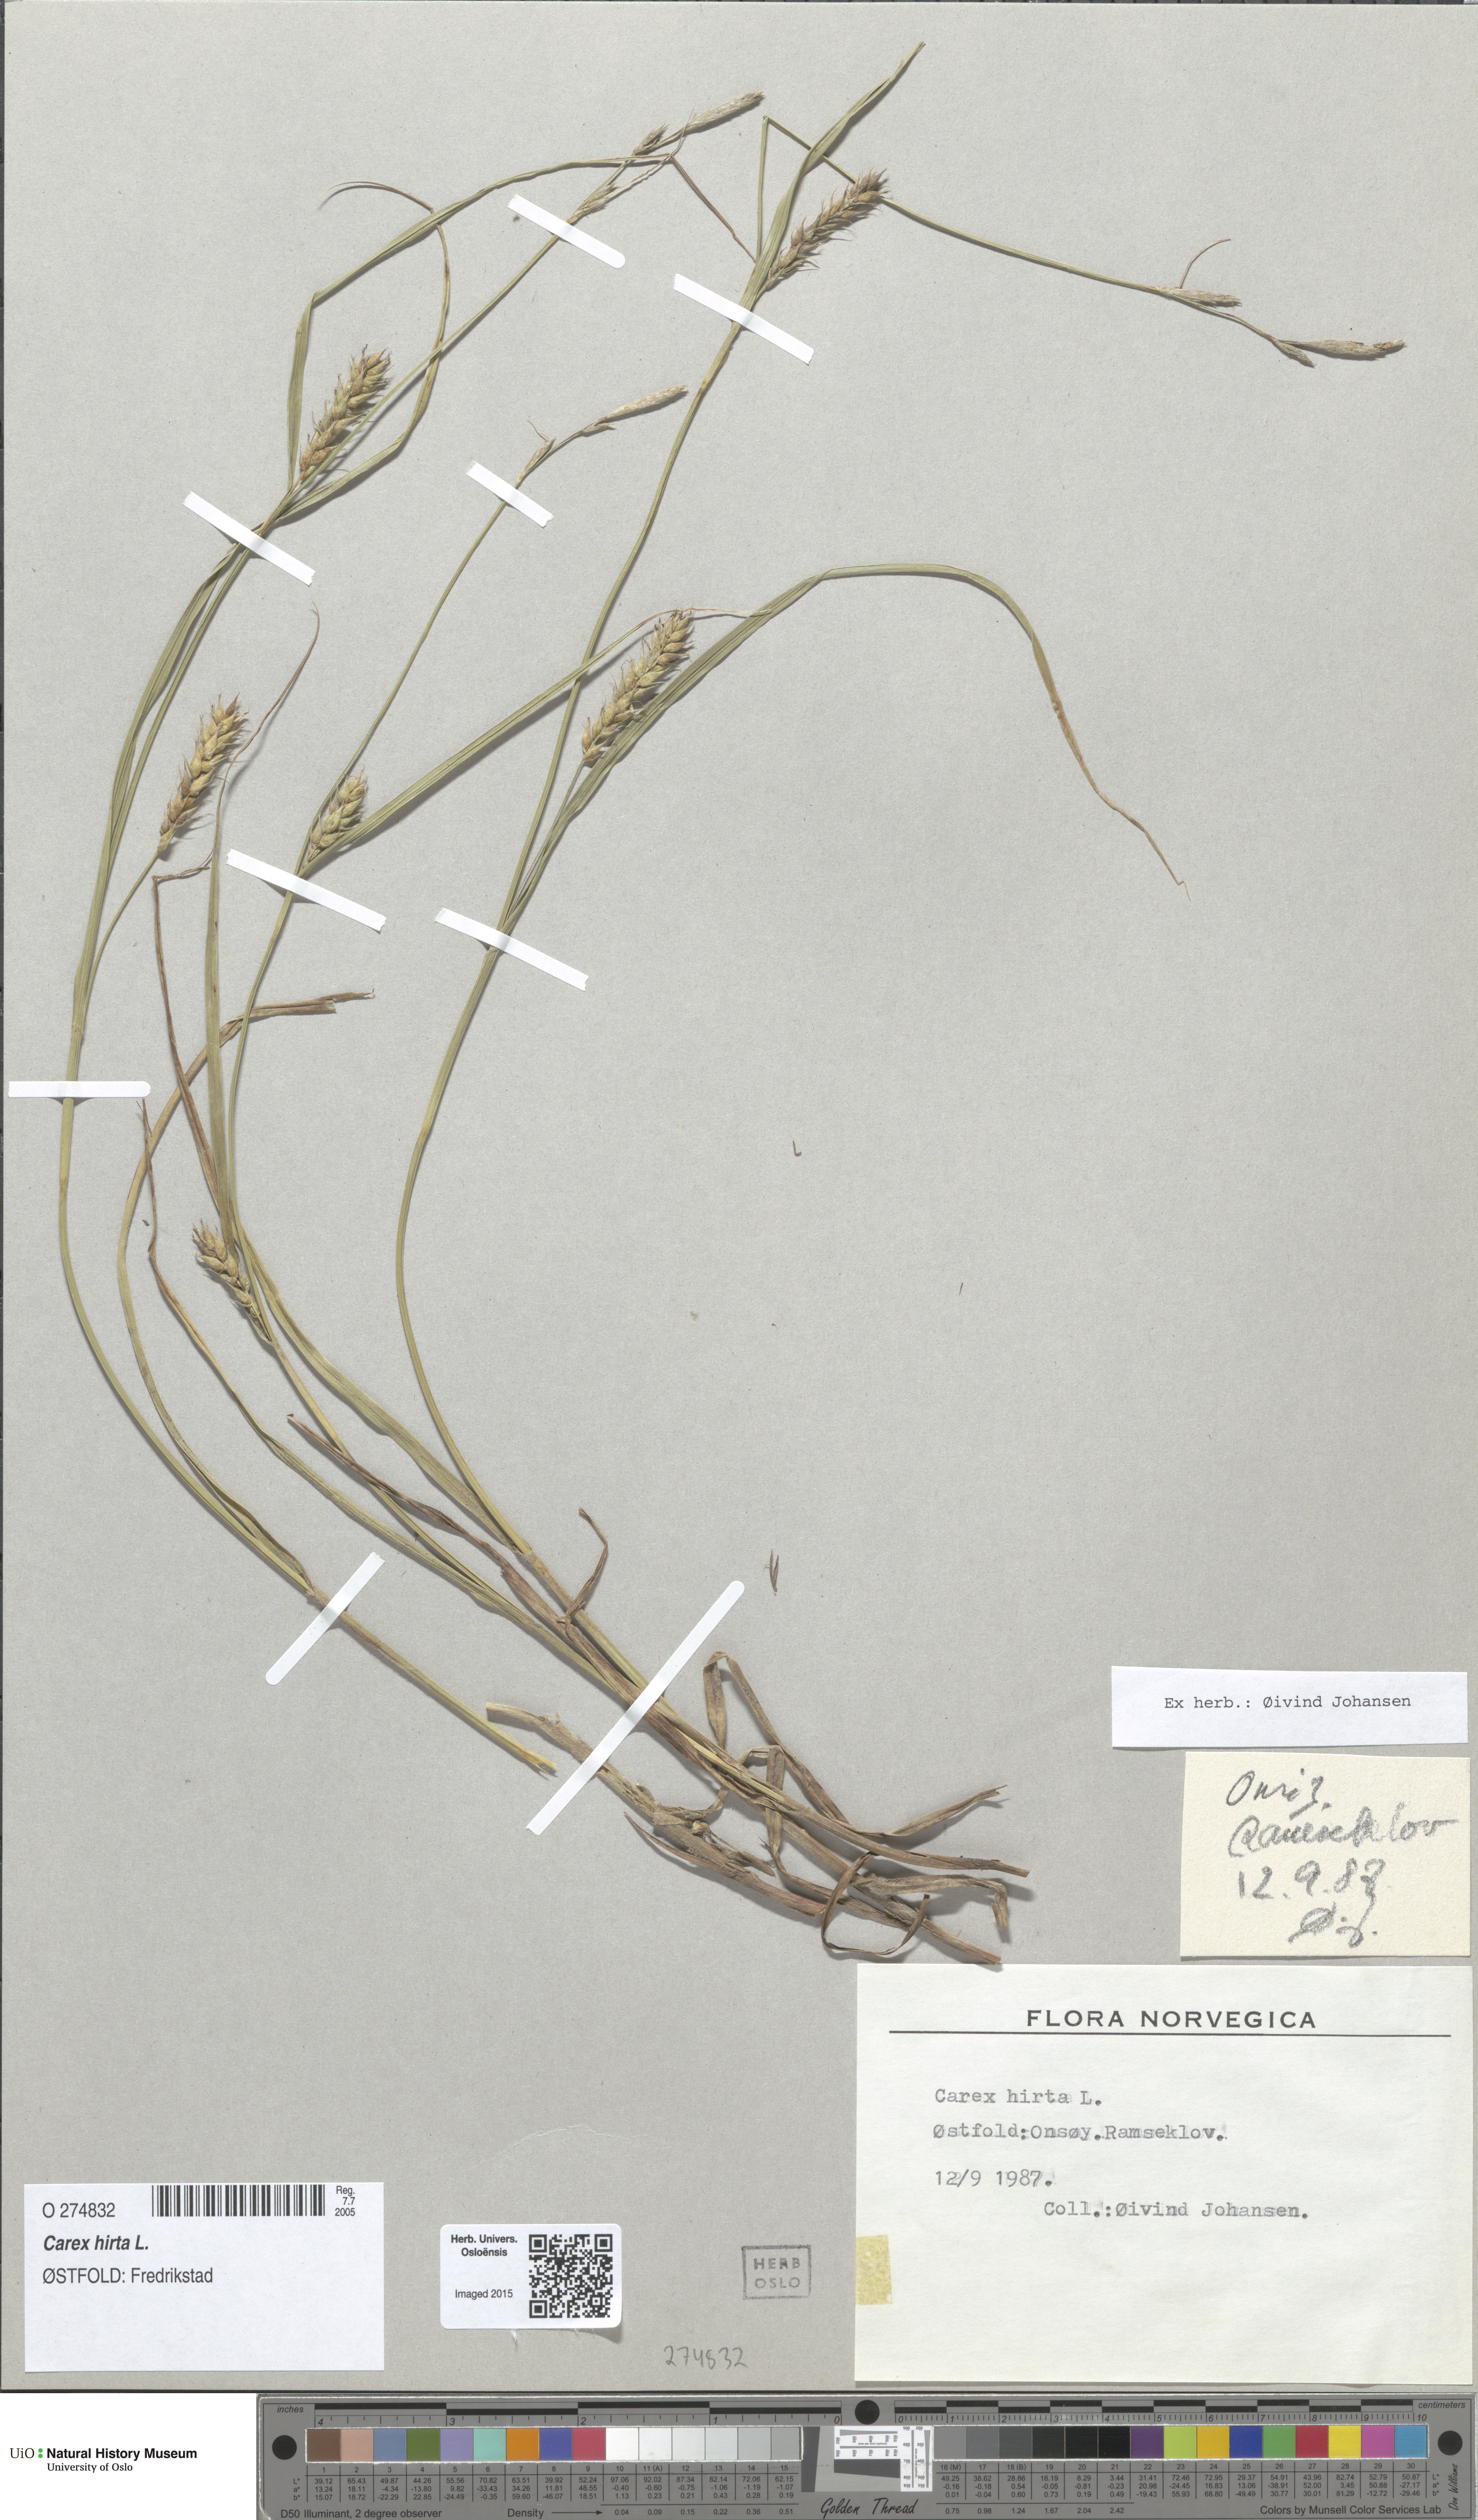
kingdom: Plantae
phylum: Tracheophyta
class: Liliopsida
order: Poales
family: Cyperaceae
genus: Carex
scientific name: Carex hirta
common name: Hairy sedge
